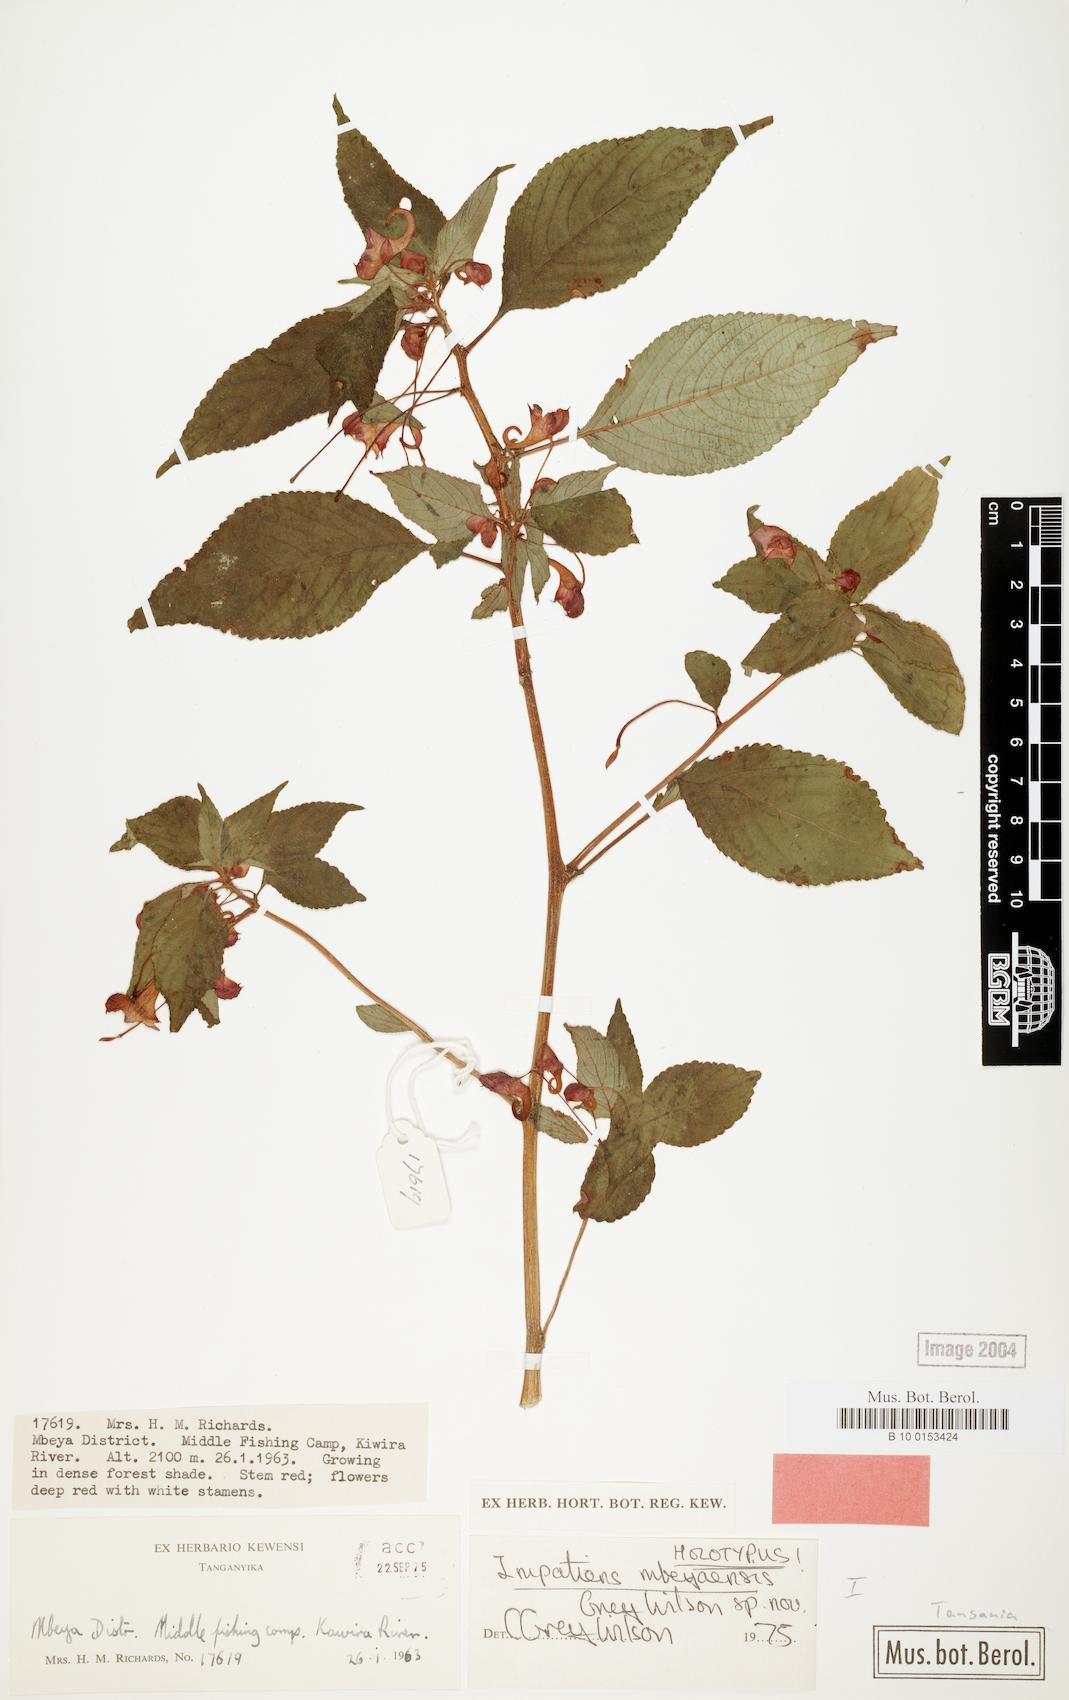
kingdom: Plantae
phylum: Tracheophyta
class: Magnoliopsida
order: Ericales
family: Balsaminaceae
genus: Impatiens
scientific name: Impatiens
